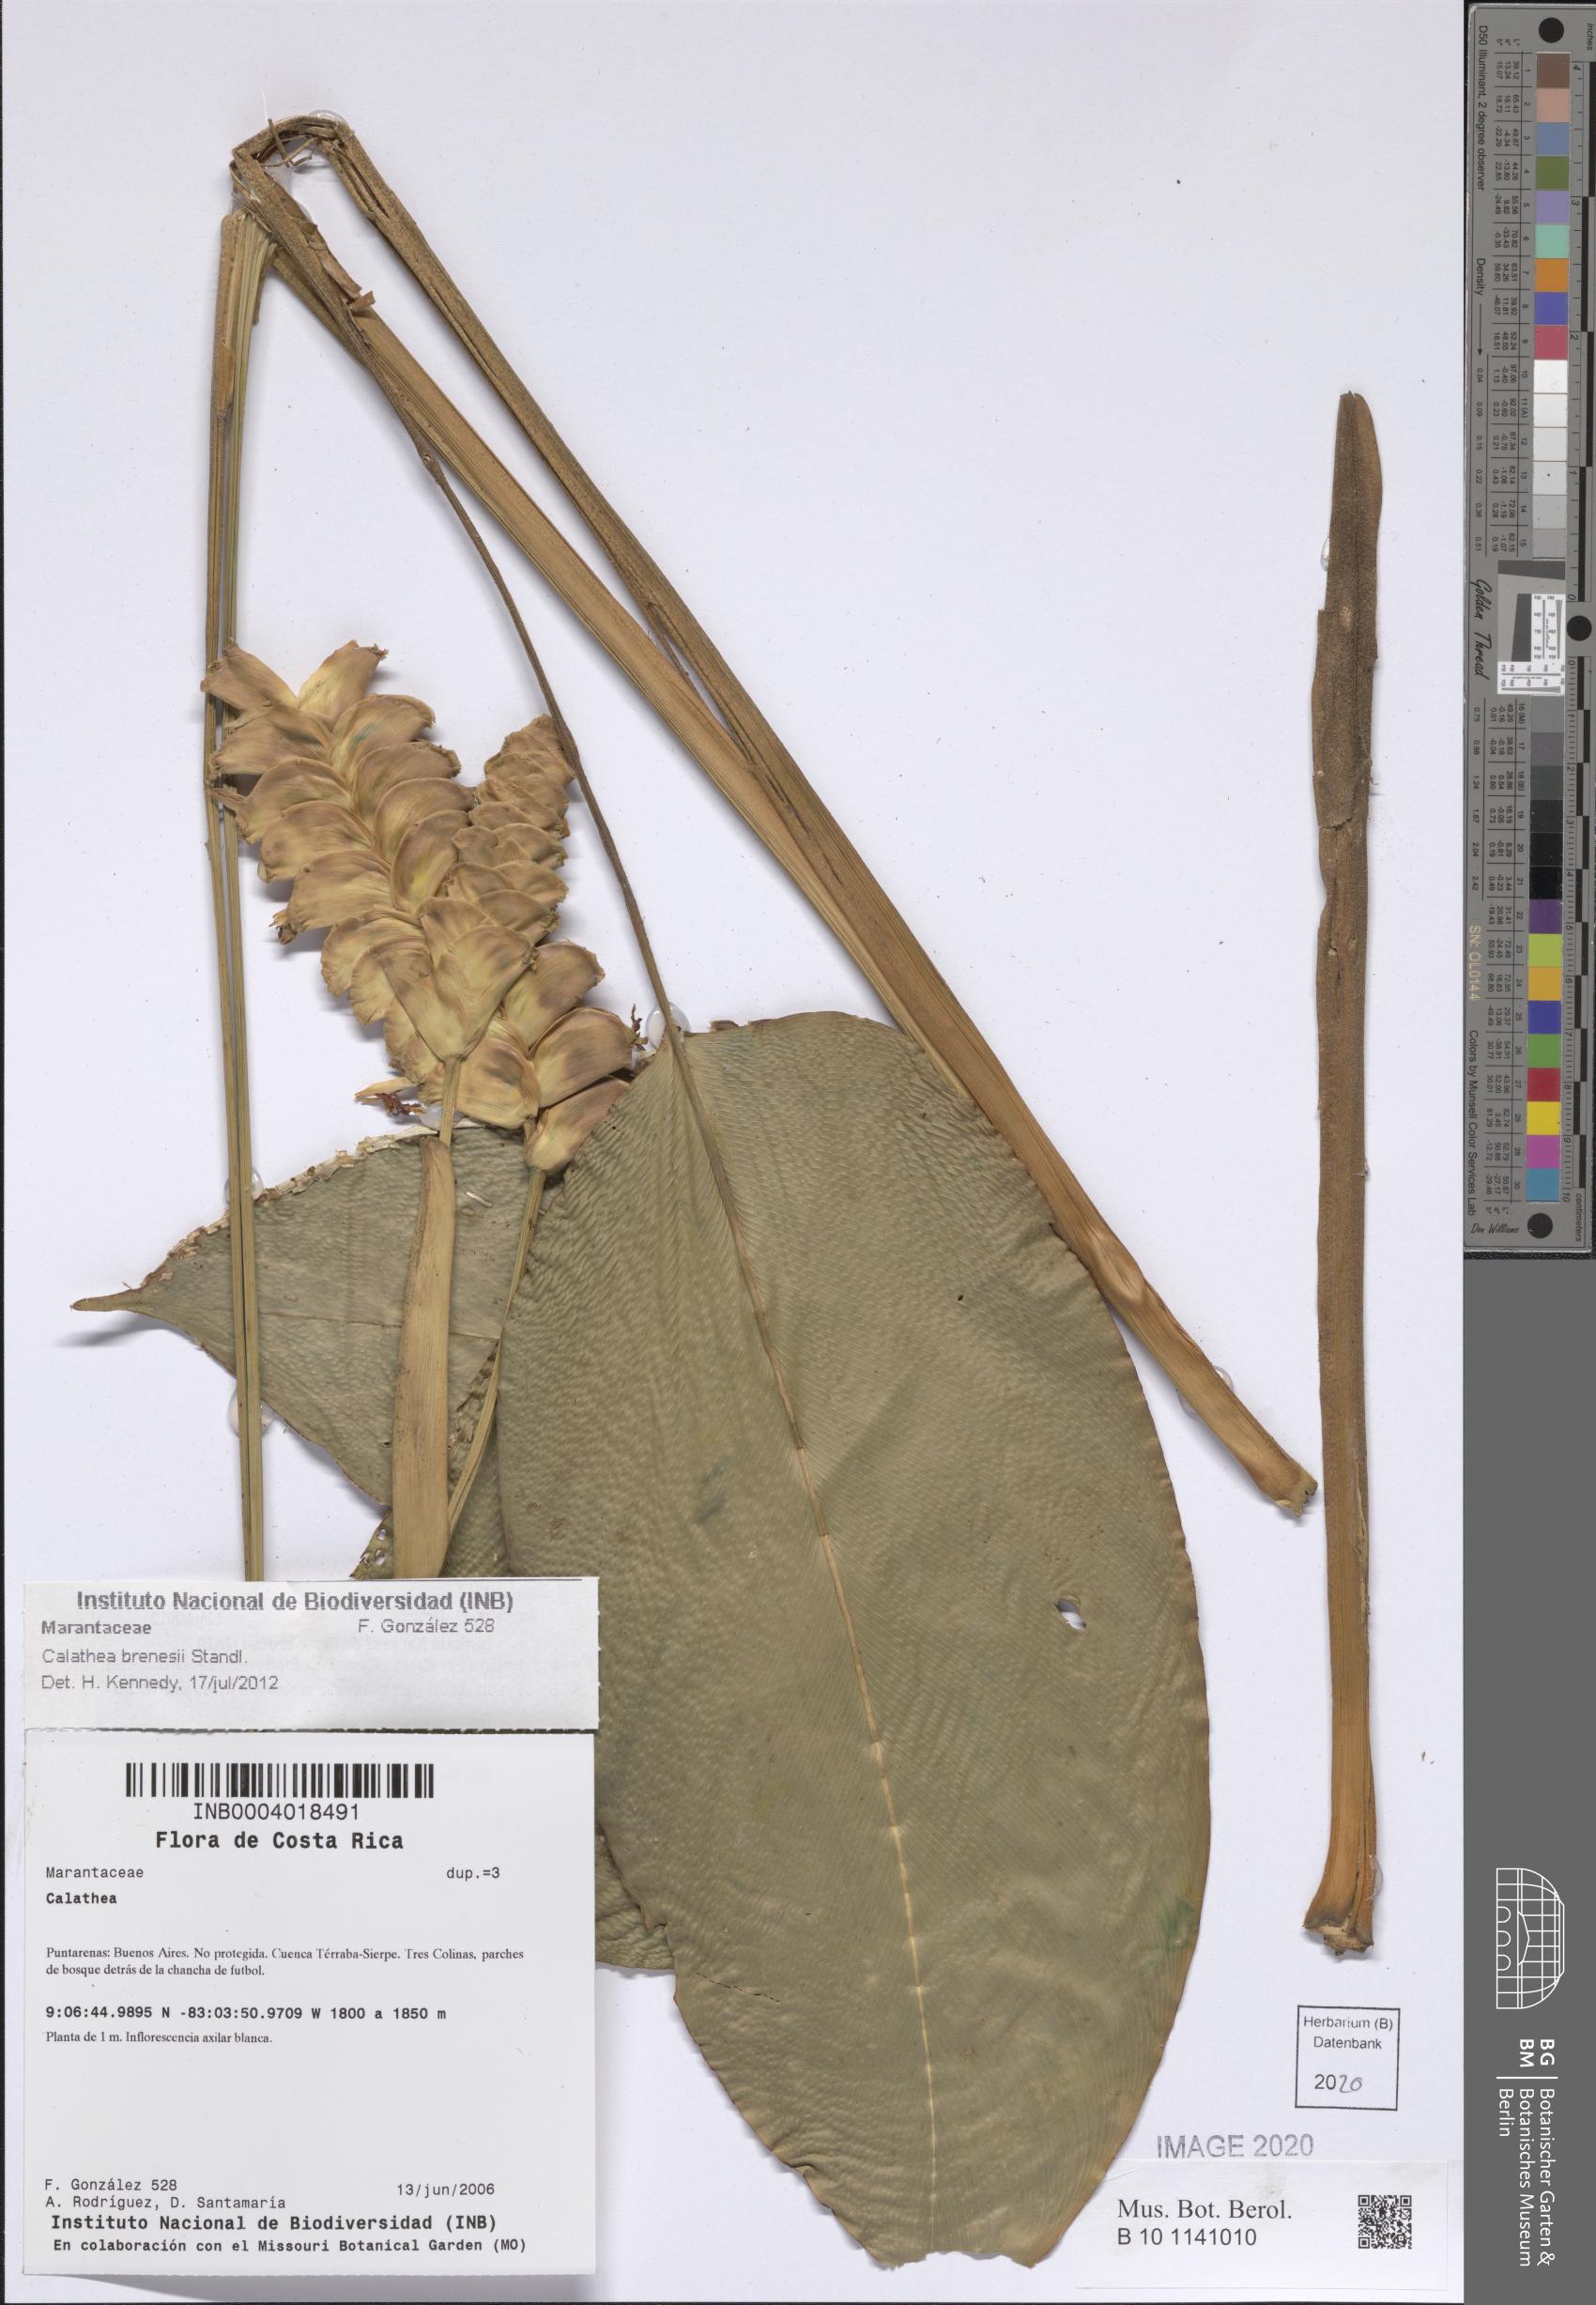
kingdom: Plantae
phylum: Tracheophyta
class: Liliopsida
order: Zingiberales
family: Marantaceae
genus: Calathea
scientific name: Calathea brenesii
